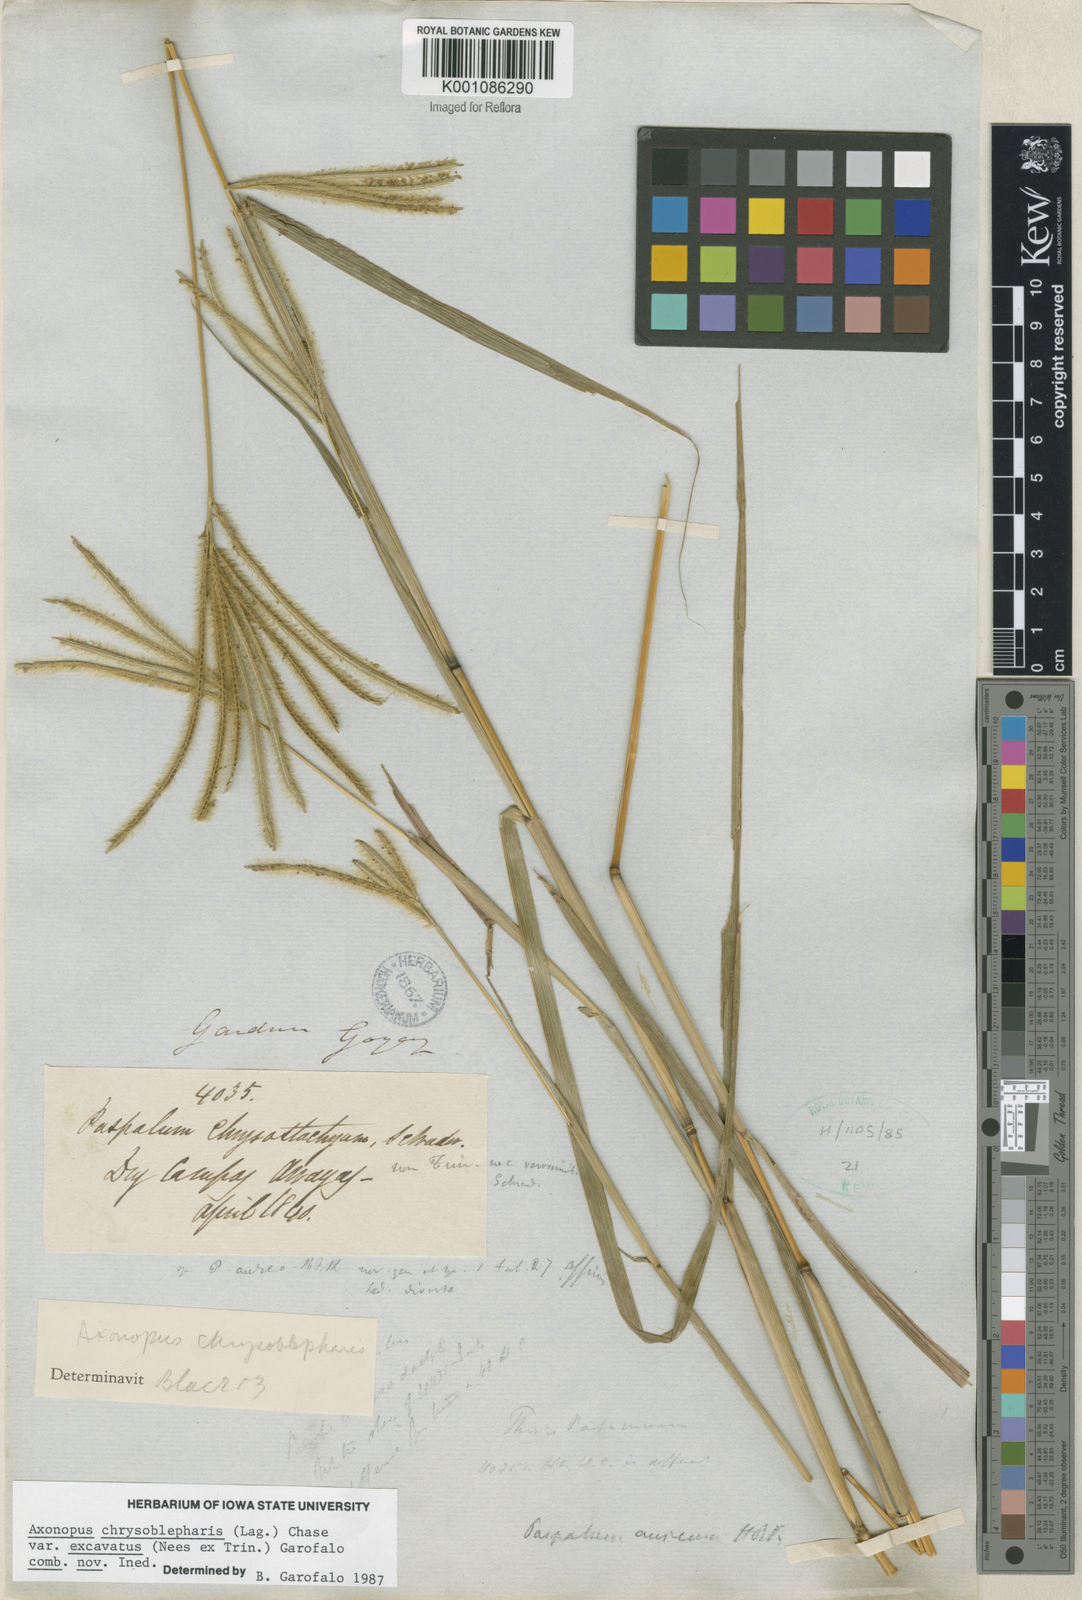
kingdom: Plantae
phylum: Tracheophyta
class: Liliopsida
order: Poales
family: Poaceae
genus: Axonopus
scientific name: Axonopus chrysoblepharis
